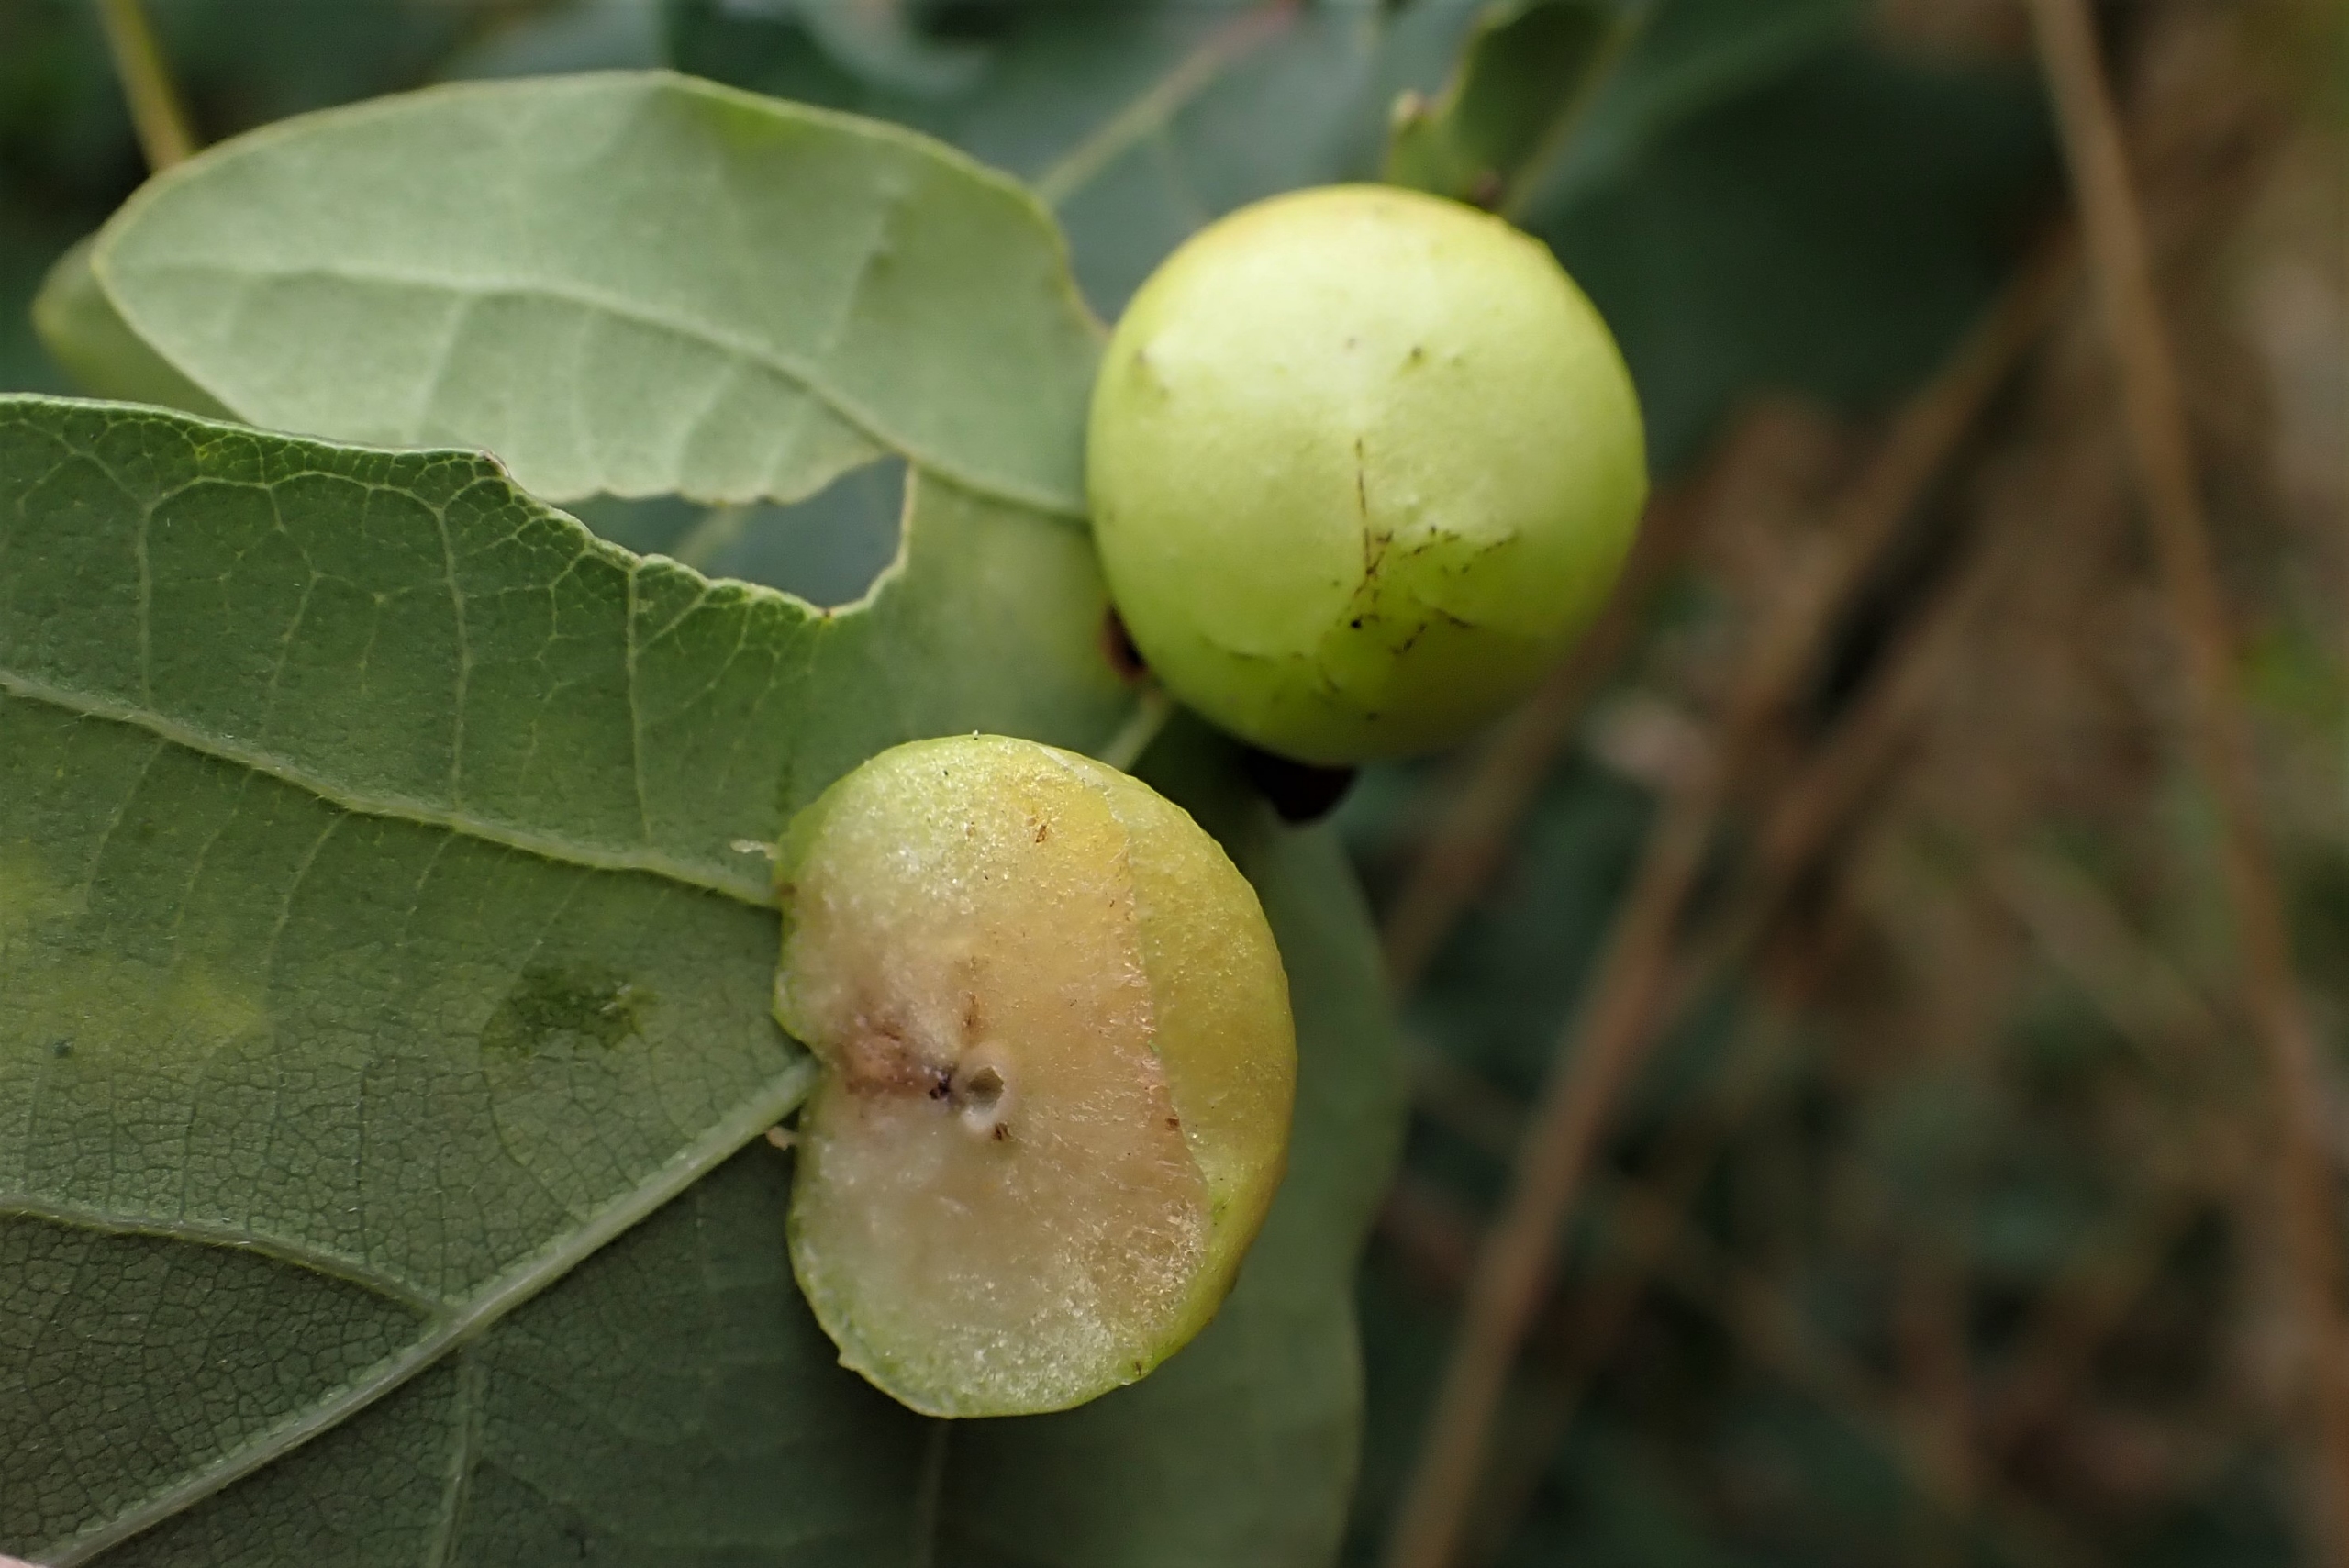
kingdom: Animalia
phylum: Arthropoda
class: Insecta
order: Hymenoptera
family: Cynipidae
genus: Cynips
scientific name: Cynips quercusfolii
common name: Stor galæblehveps
